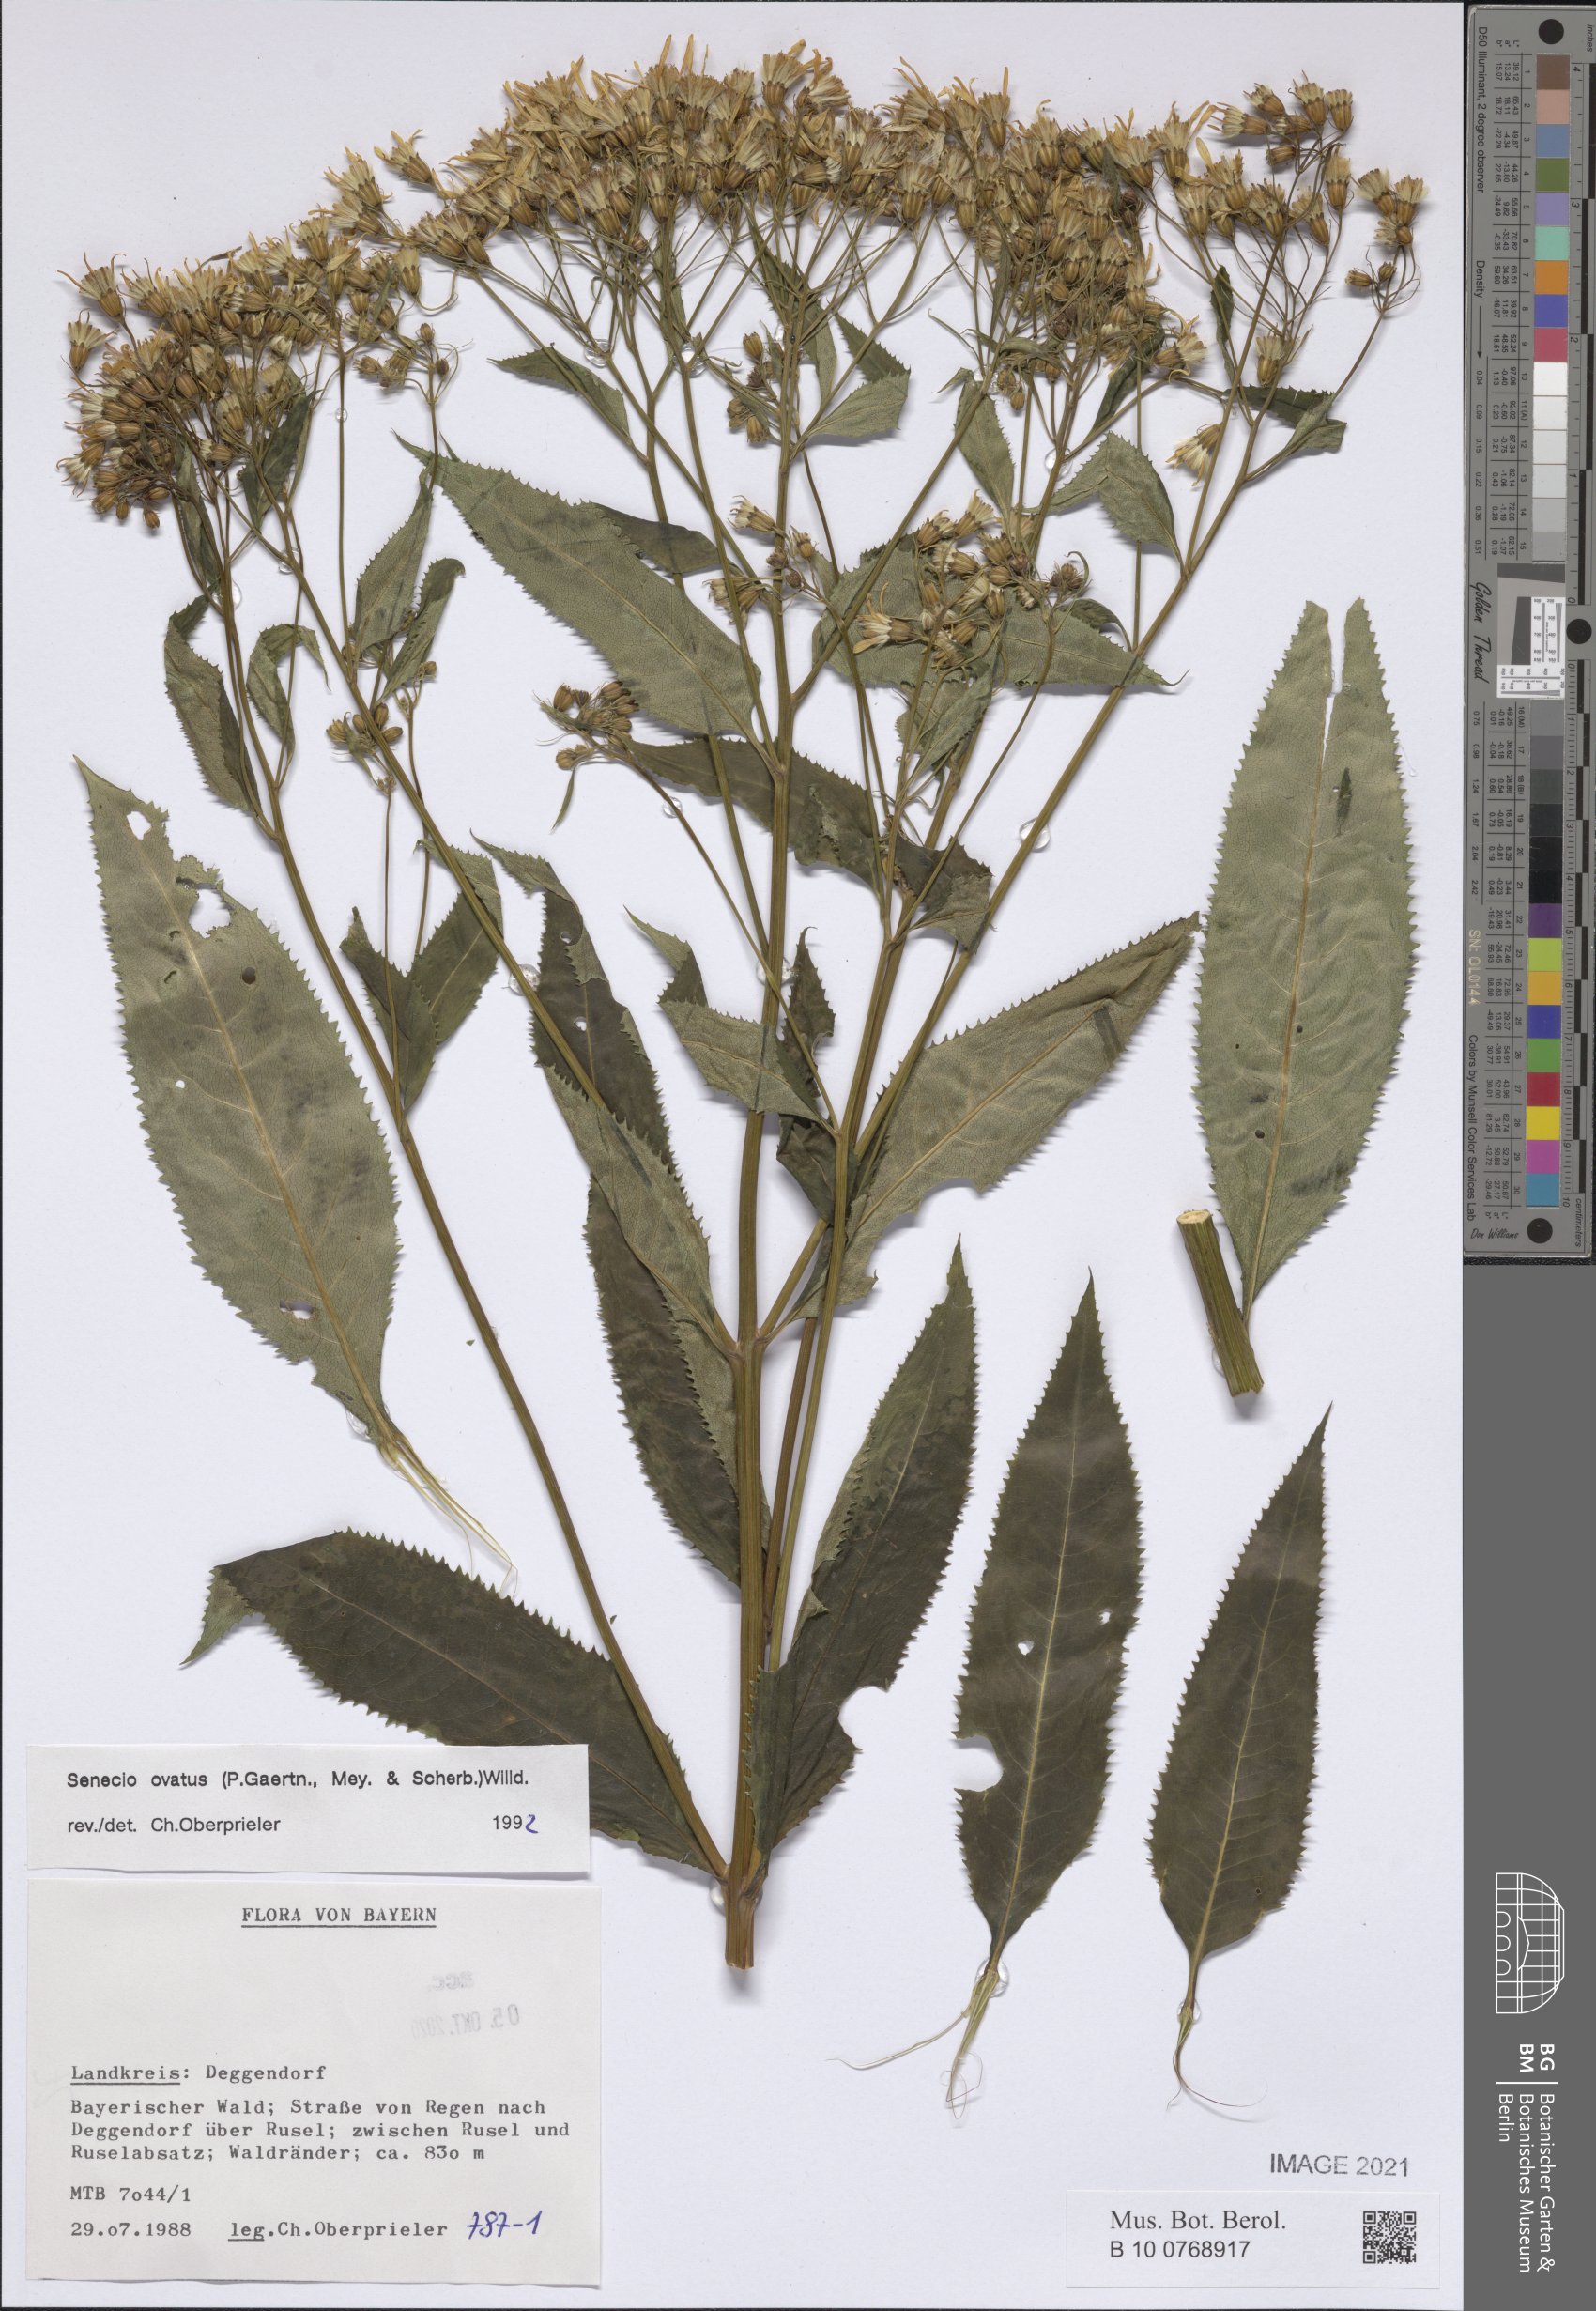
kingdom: Plantae
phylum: Tracheophyta
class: Magnoliopsida
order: Asterales
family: Asteraceae
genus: Senecio
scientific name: Senecio ovatus
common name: Wood ragwort
